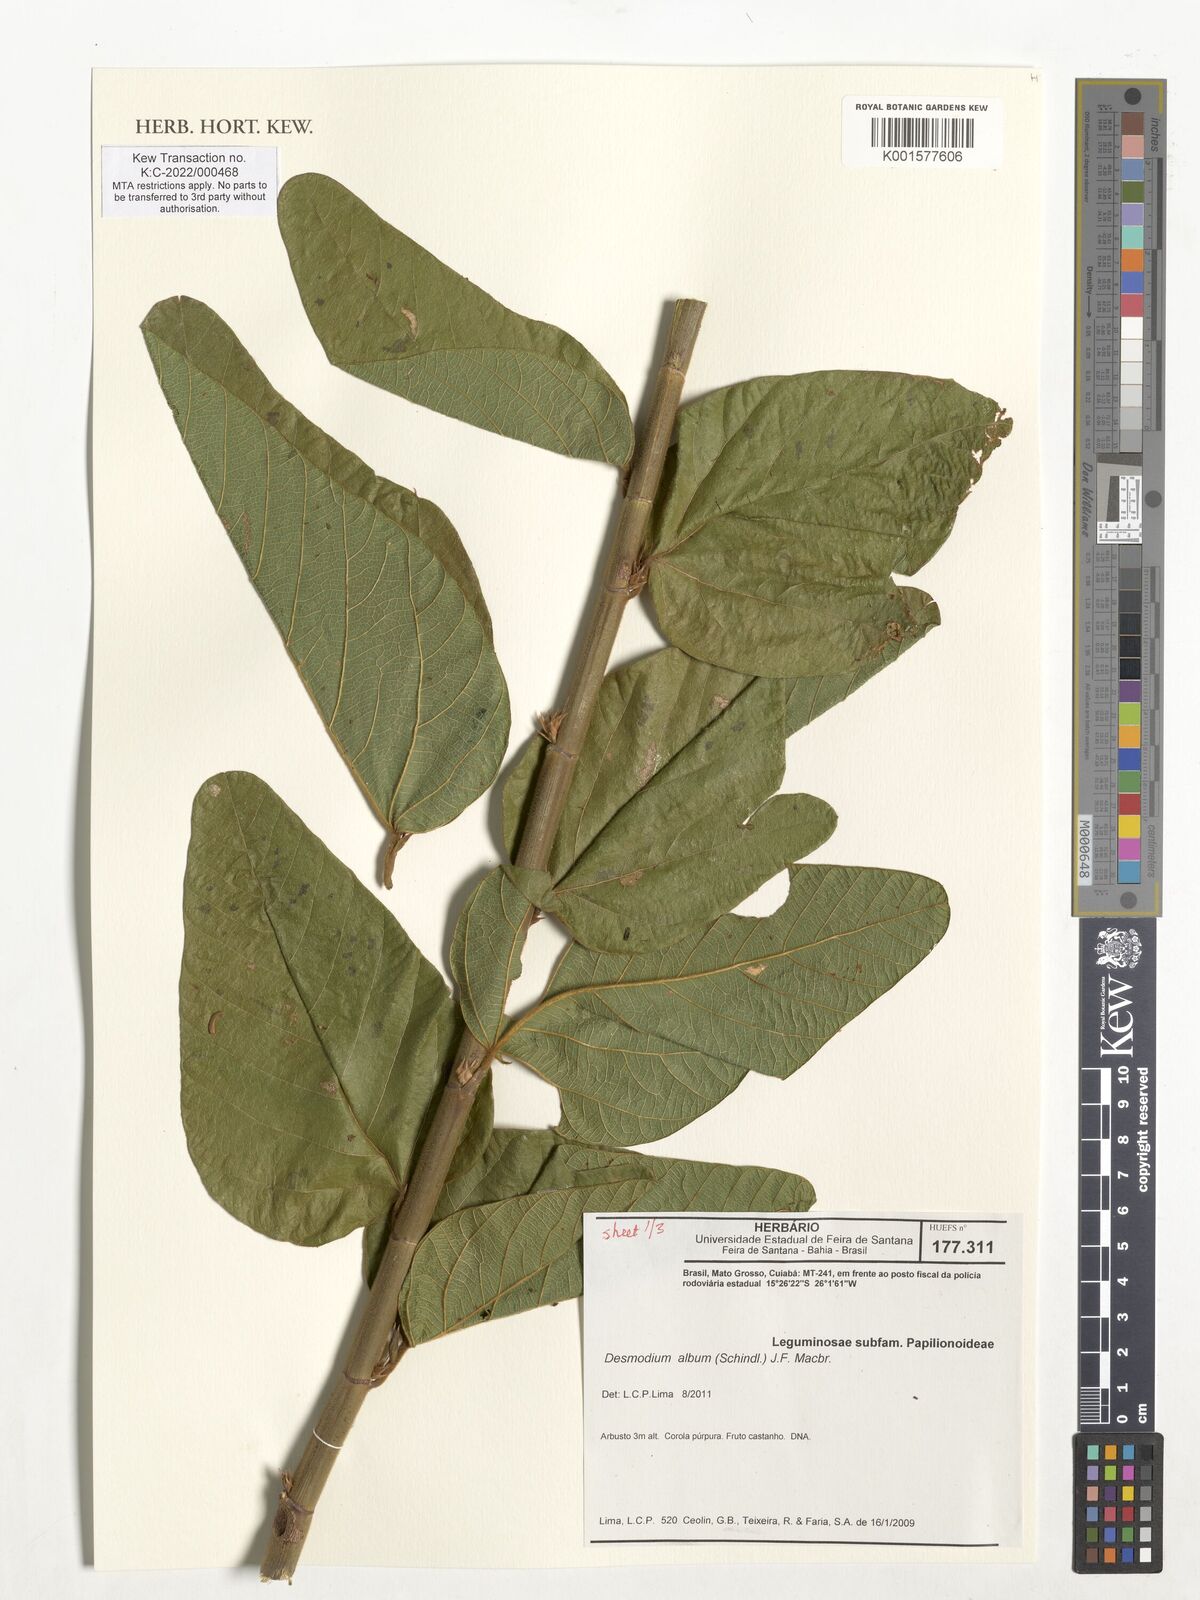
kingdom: Plantae
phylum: Tracheophyta
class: Magnoliopsida
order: Fabales
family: Fabaceae
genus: Desmodium
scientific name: Desmodium album
